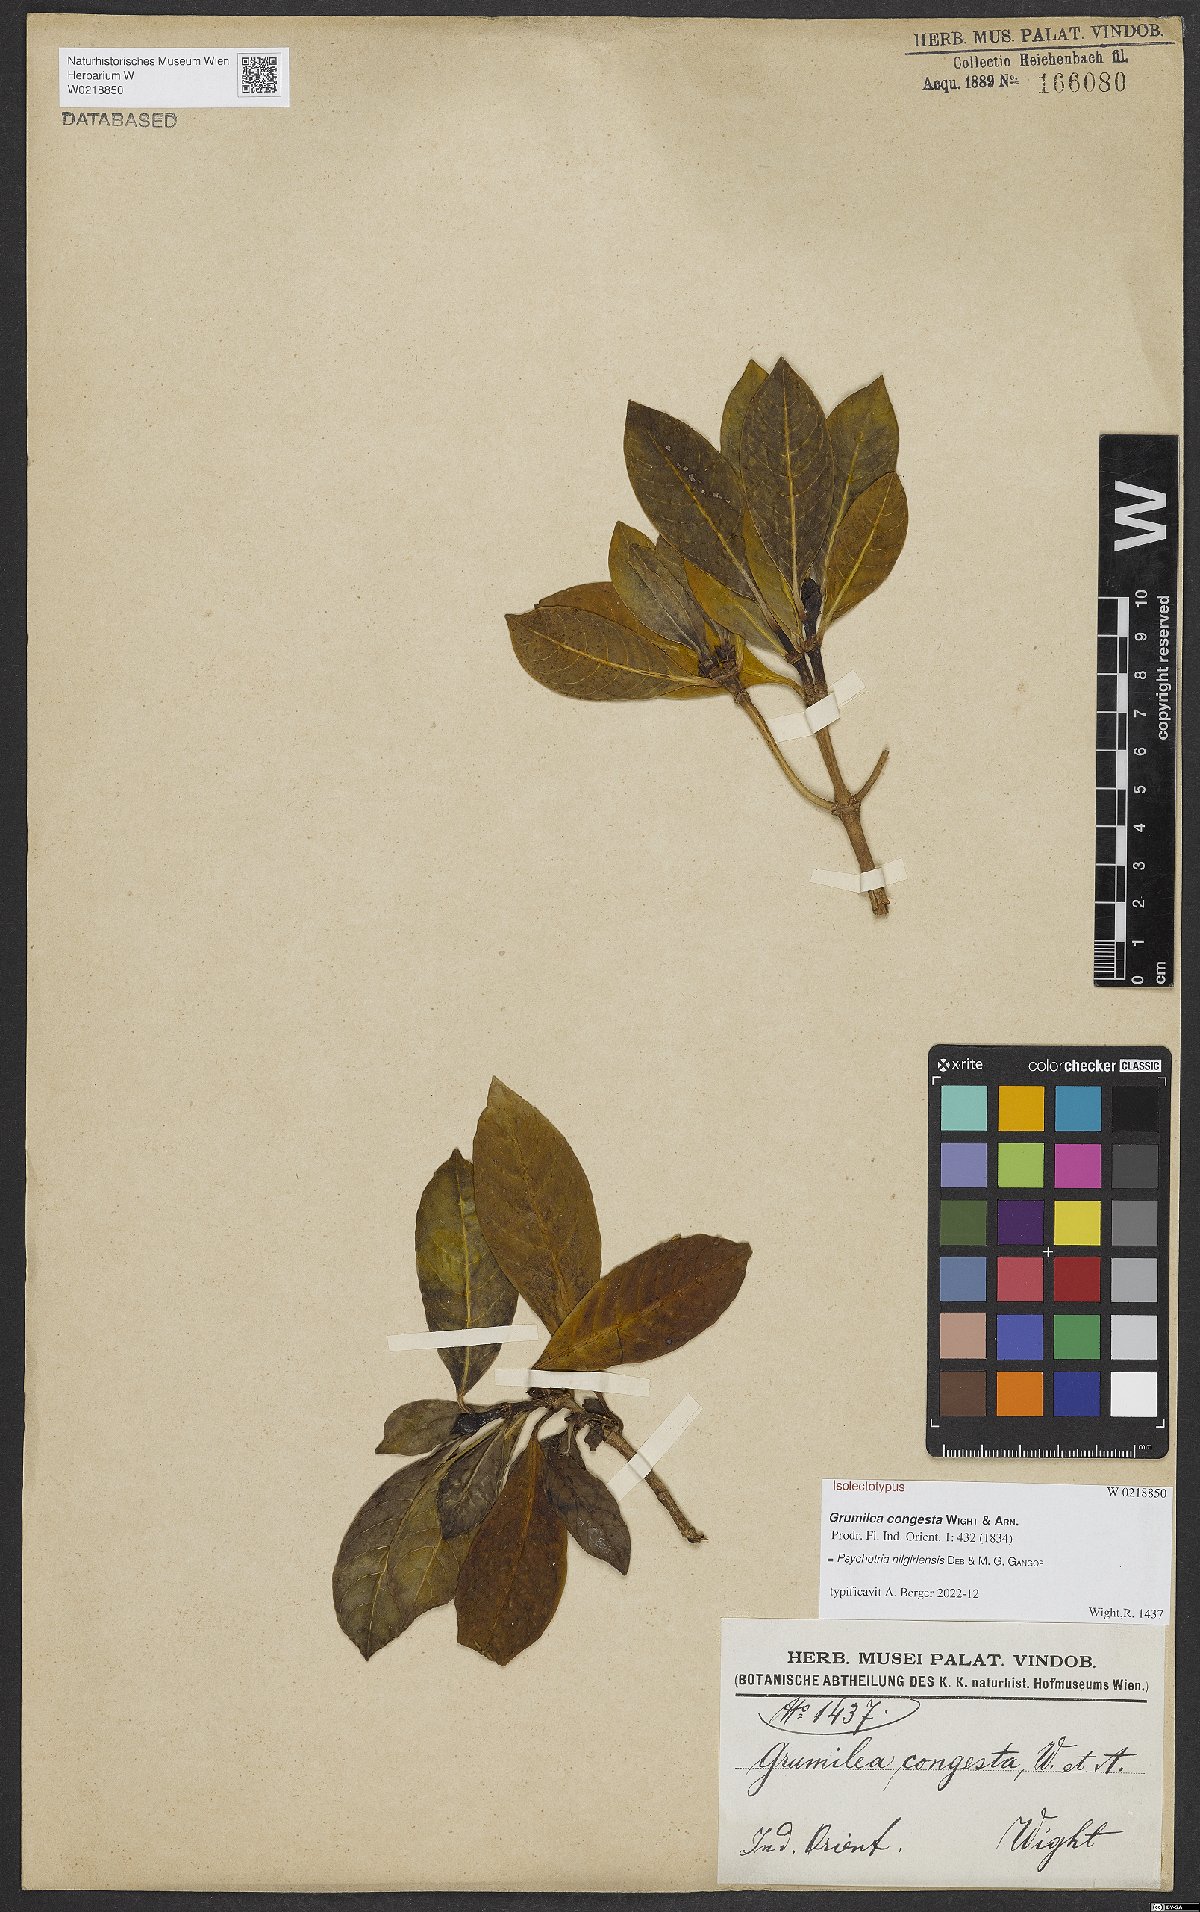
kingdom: Plantae
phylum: Tracheophyta
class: Magnoliopsida
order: Gentianales
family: Rubiaceae
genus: Psychotria
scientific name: Psychotria nilgiriensis
